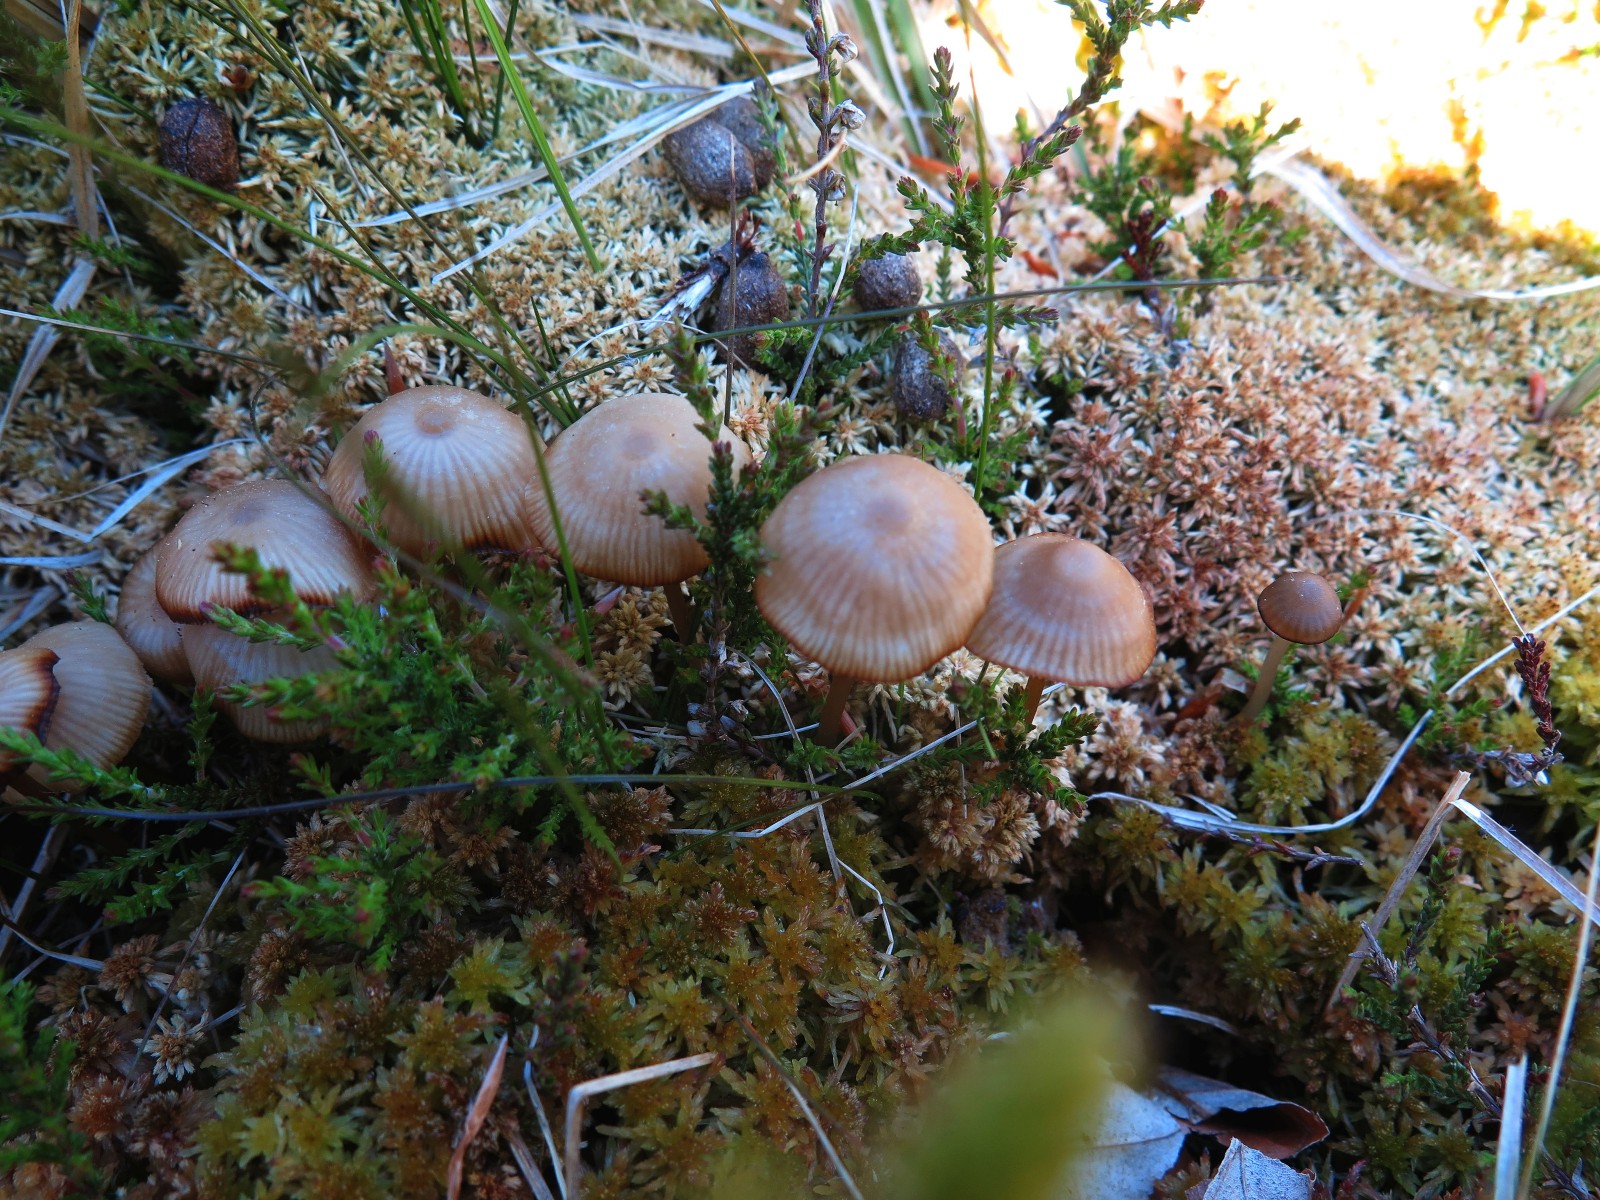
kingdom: Fungi
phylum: Basidiomycota
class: Agaricomycetes
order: Agaricales
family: Lyophyllaceae
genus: Sphagnurus
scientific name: Sphagnurus paluster
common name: tørvemos-gråblad
